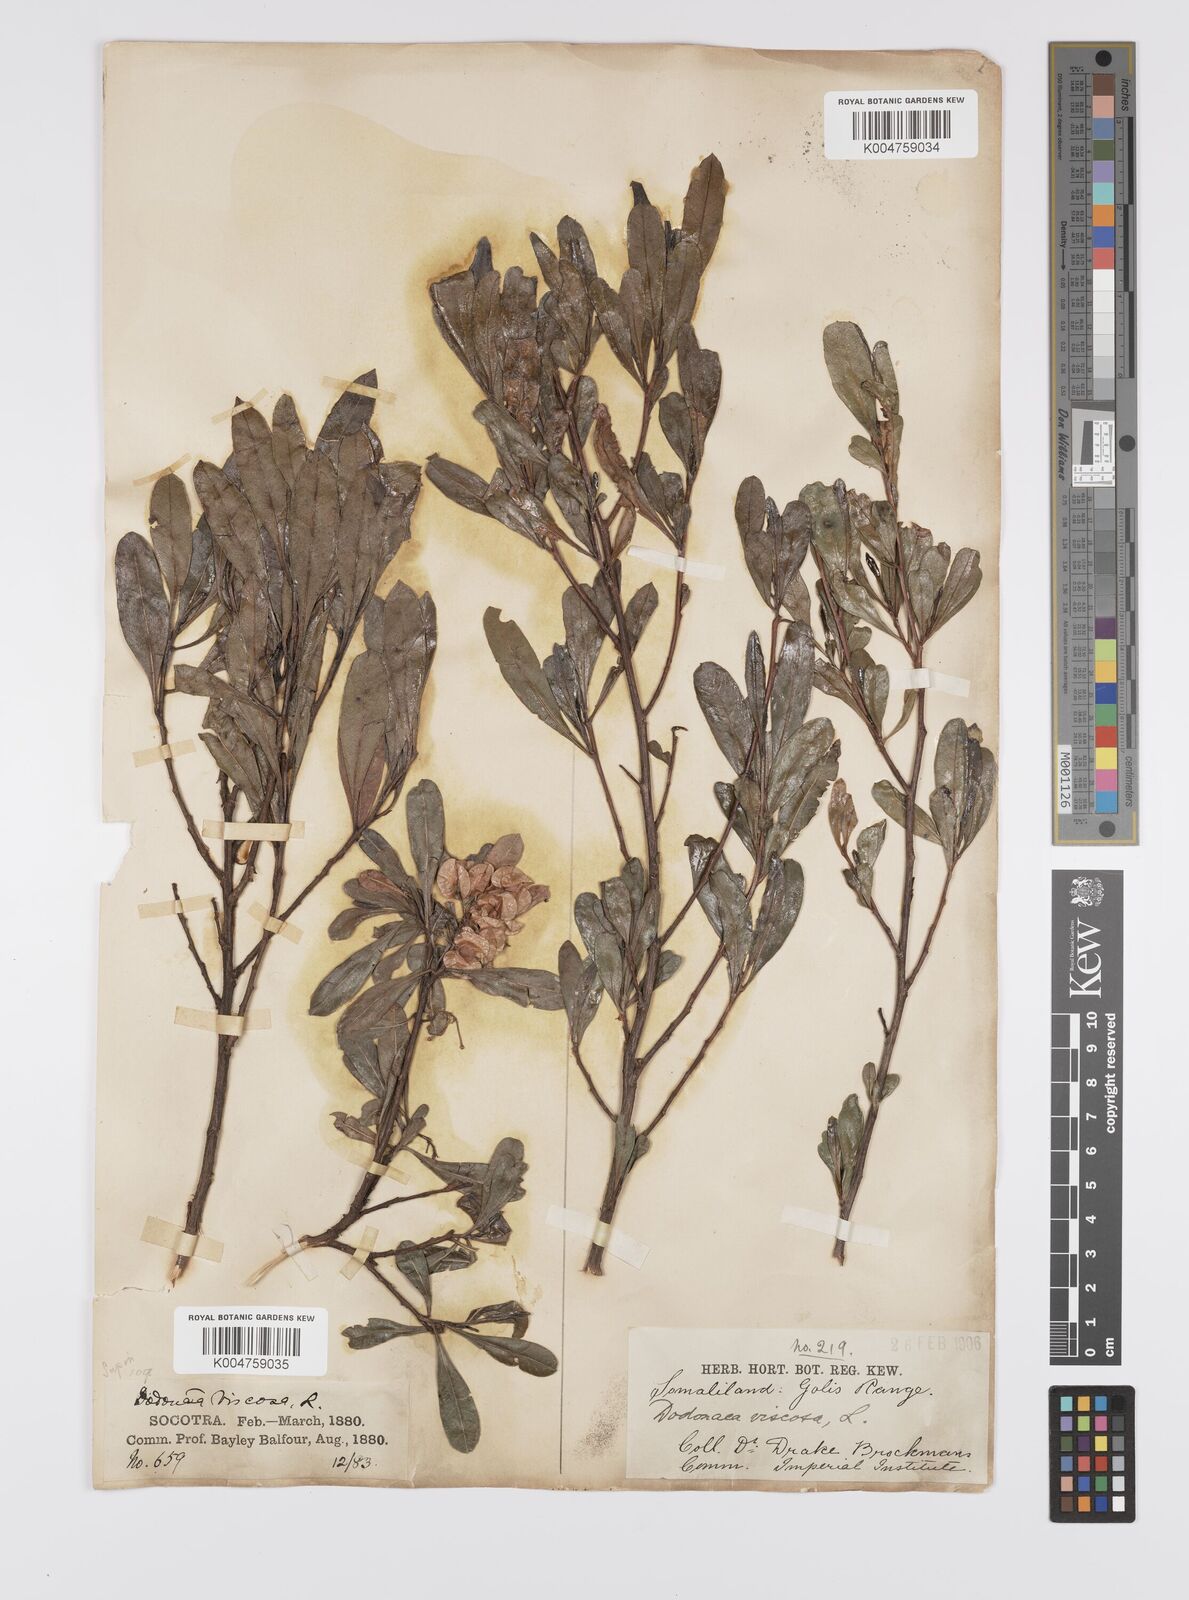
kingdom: Plantae
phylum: Tracheophyta
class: Magnoliopsida
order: Sapindales
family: Sapindaceae
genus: Dodonaea
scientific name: Dodonaea viscosa
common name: Hopbush
